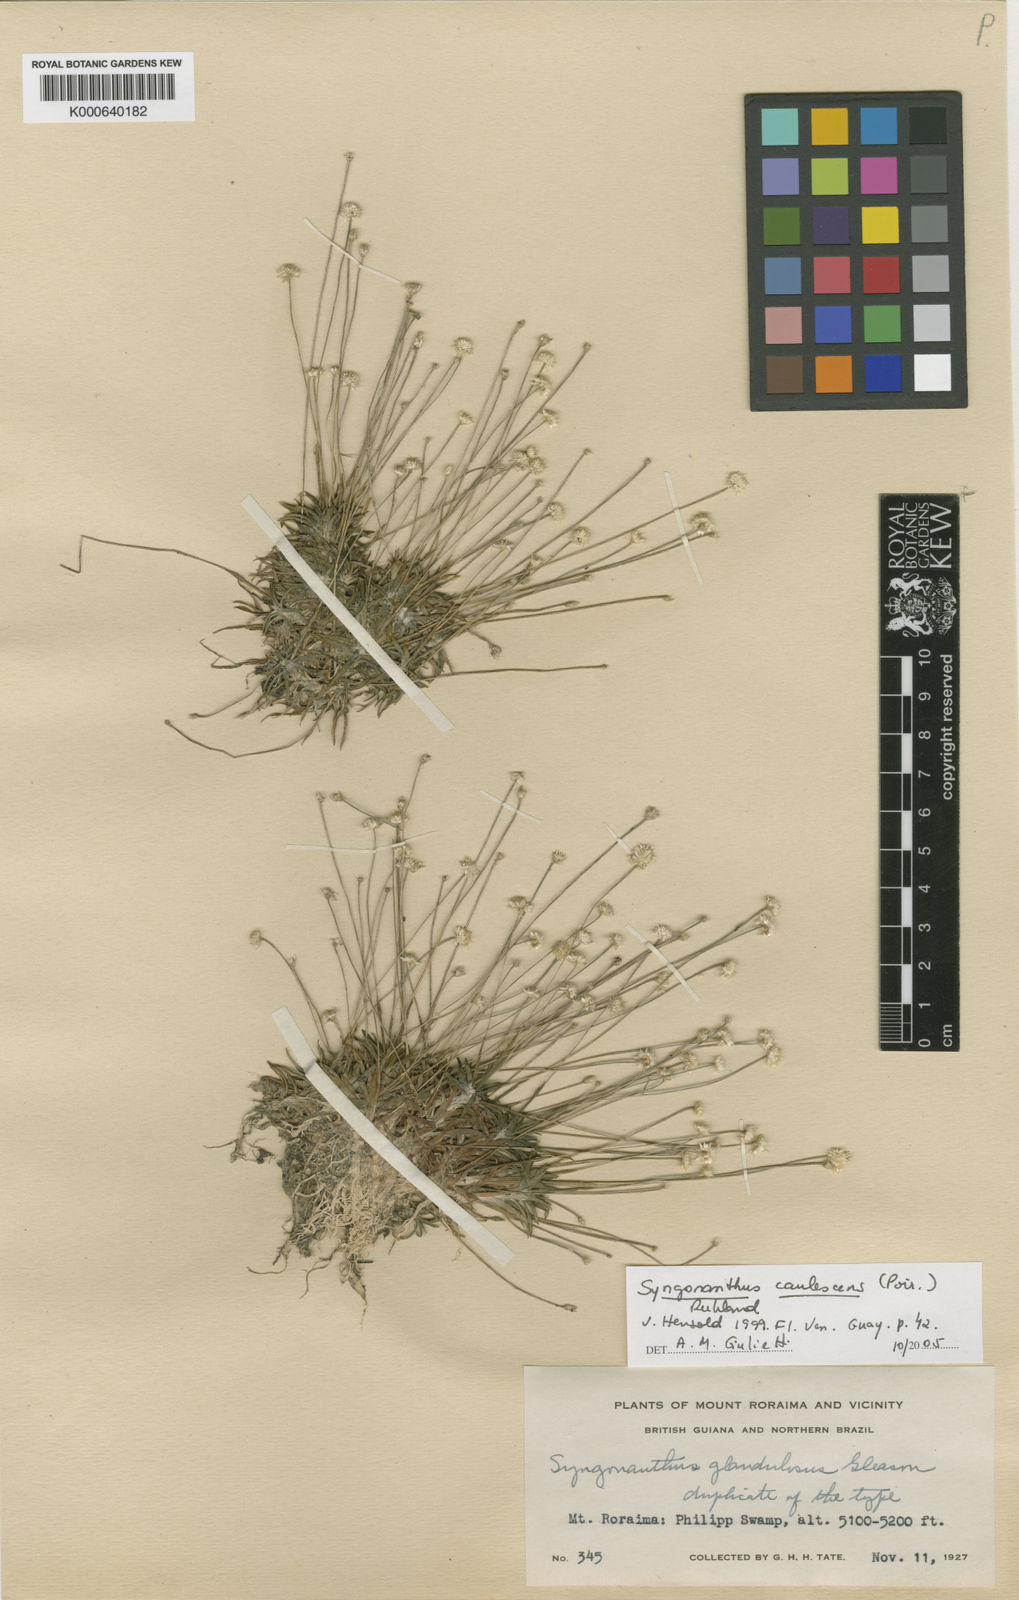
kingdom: Plantae
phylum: Tracheophyta
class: Liliopsida
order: Poales
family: Eriocaulaceae
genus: Syngonanthus
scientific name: Syngonanthus caulescens
